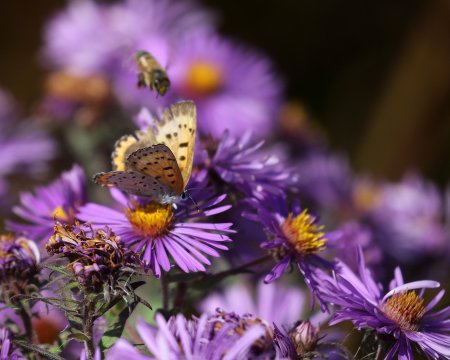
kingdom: Animalia
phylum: Arthropoda
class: Insecta
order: Lepidoptera
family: Sesiidae
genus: Sesia
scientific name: Sesia Lycaena hyllus
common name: Bronze Copper
